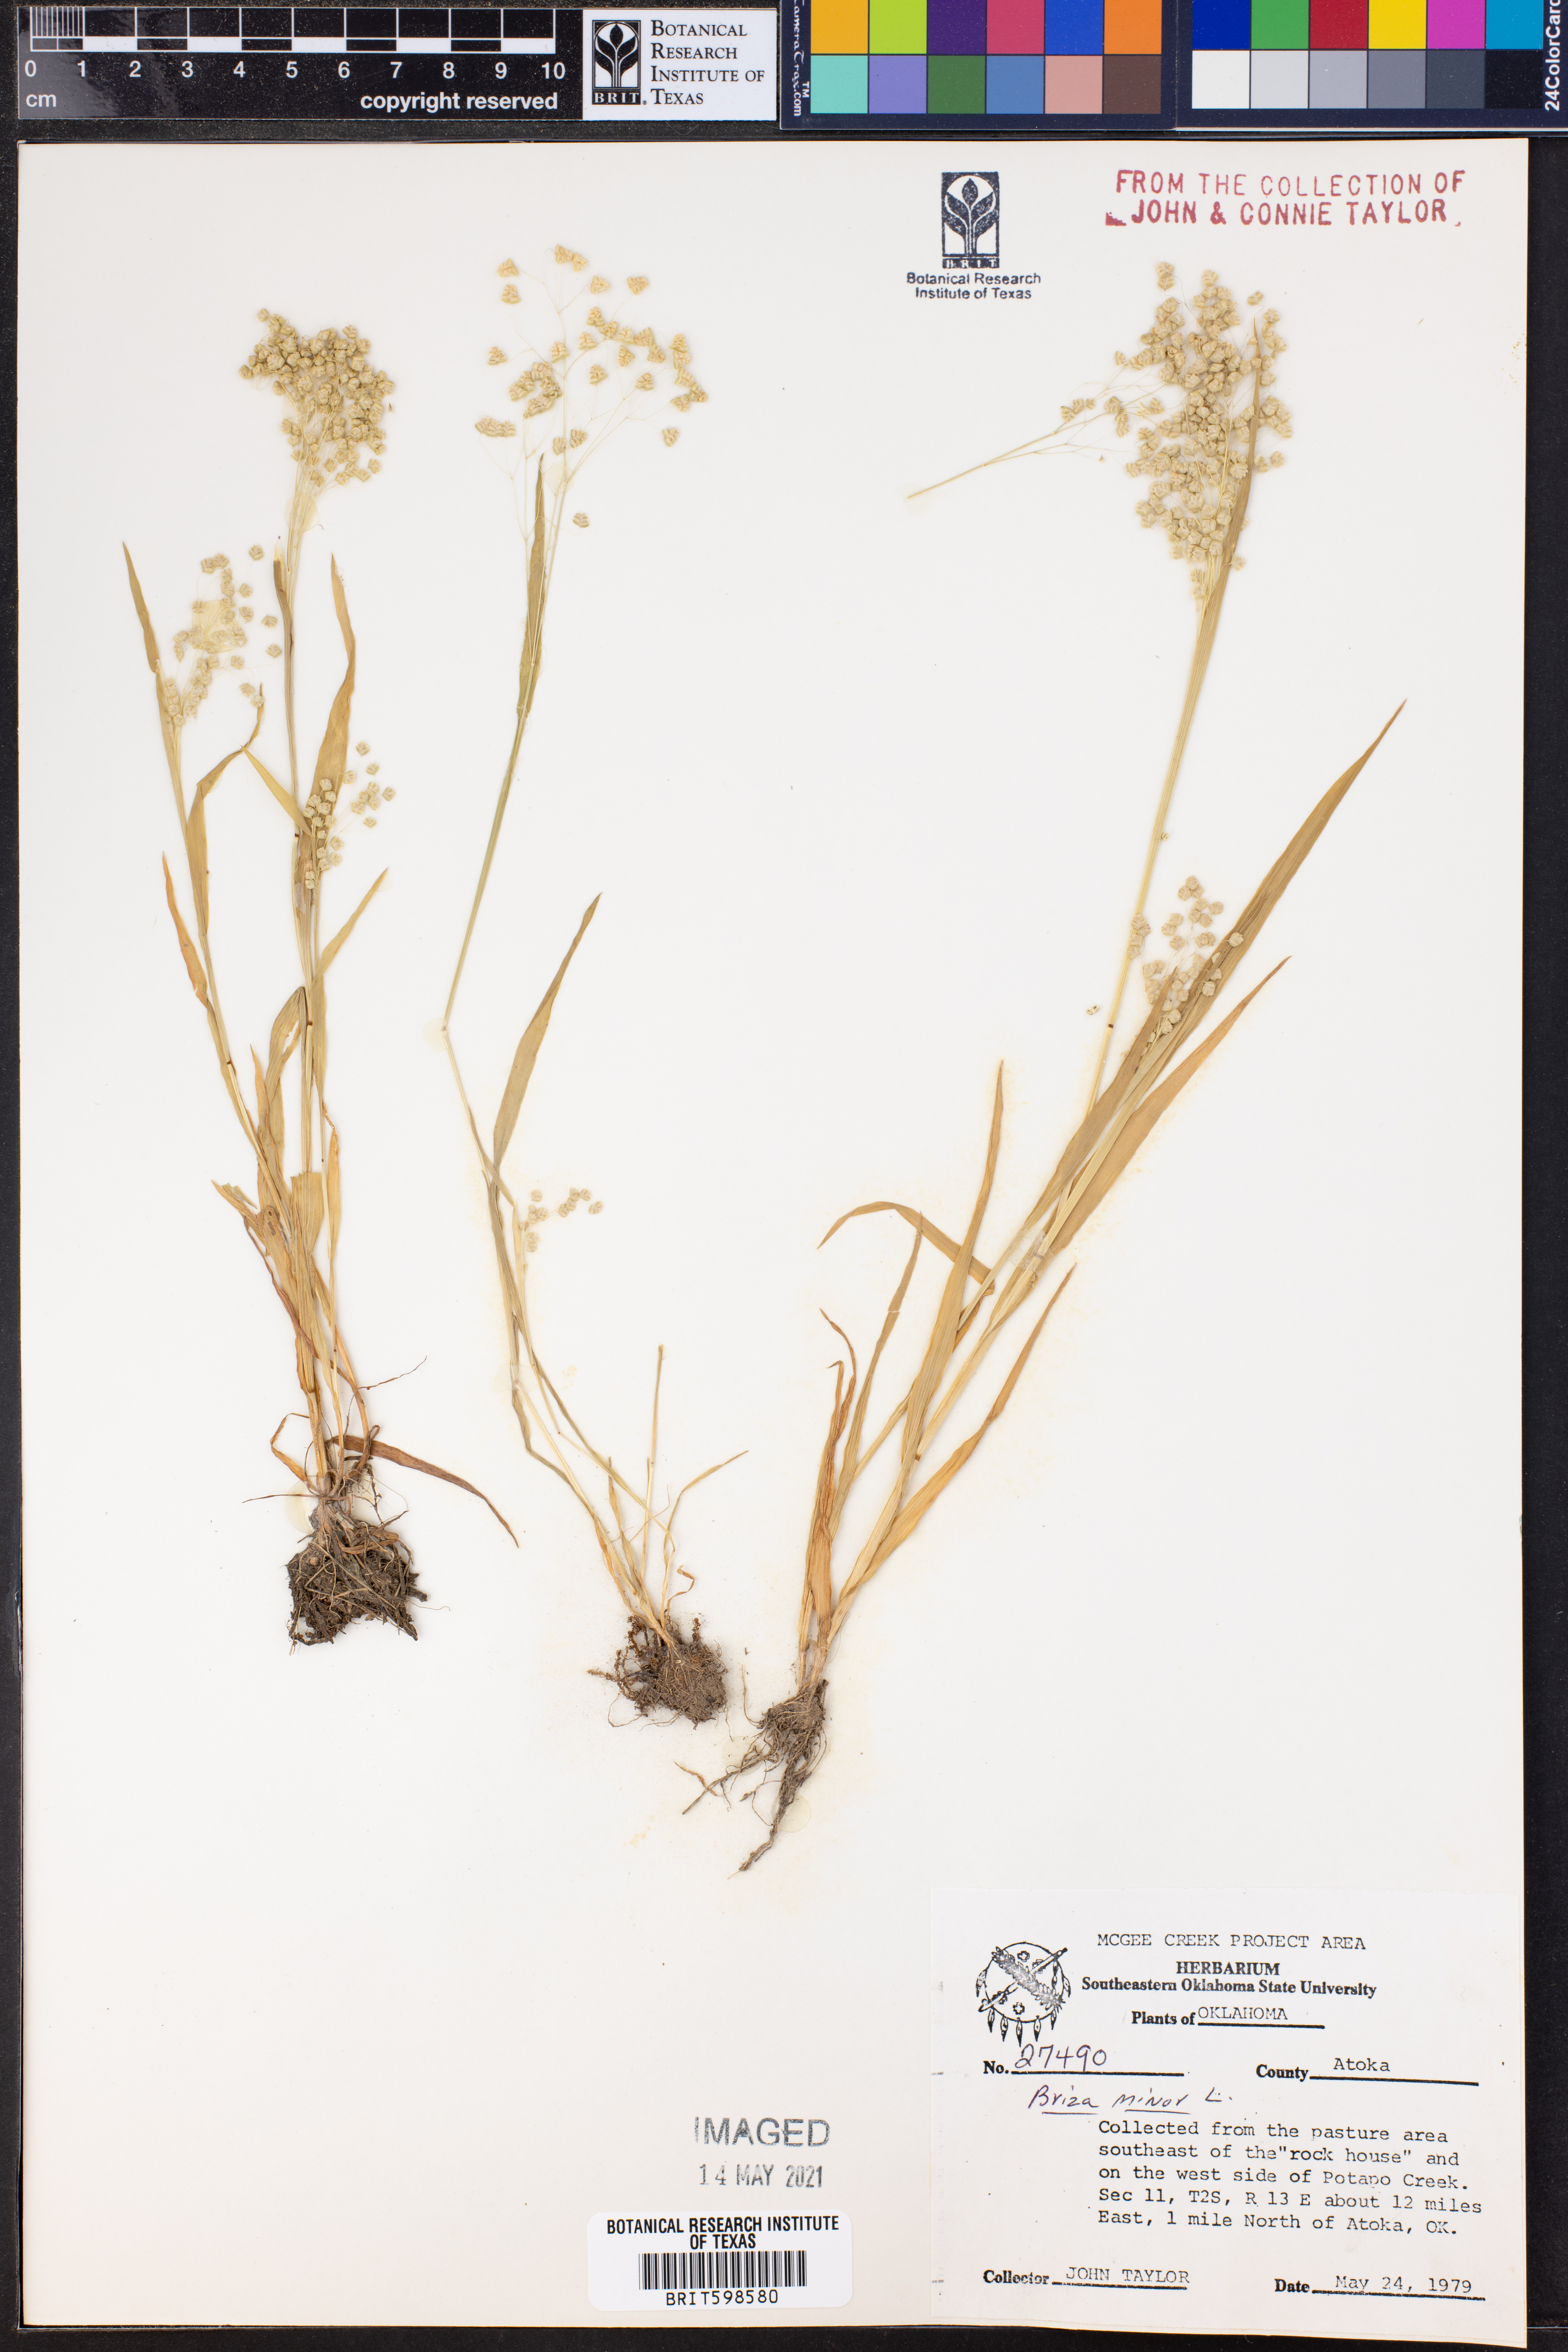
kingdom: Plantae
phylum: Tracheophyta
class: Liliopsida
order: Poales
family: Poaceae
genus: Briza
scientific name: Briza minor
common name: Lesser quaking-grass
